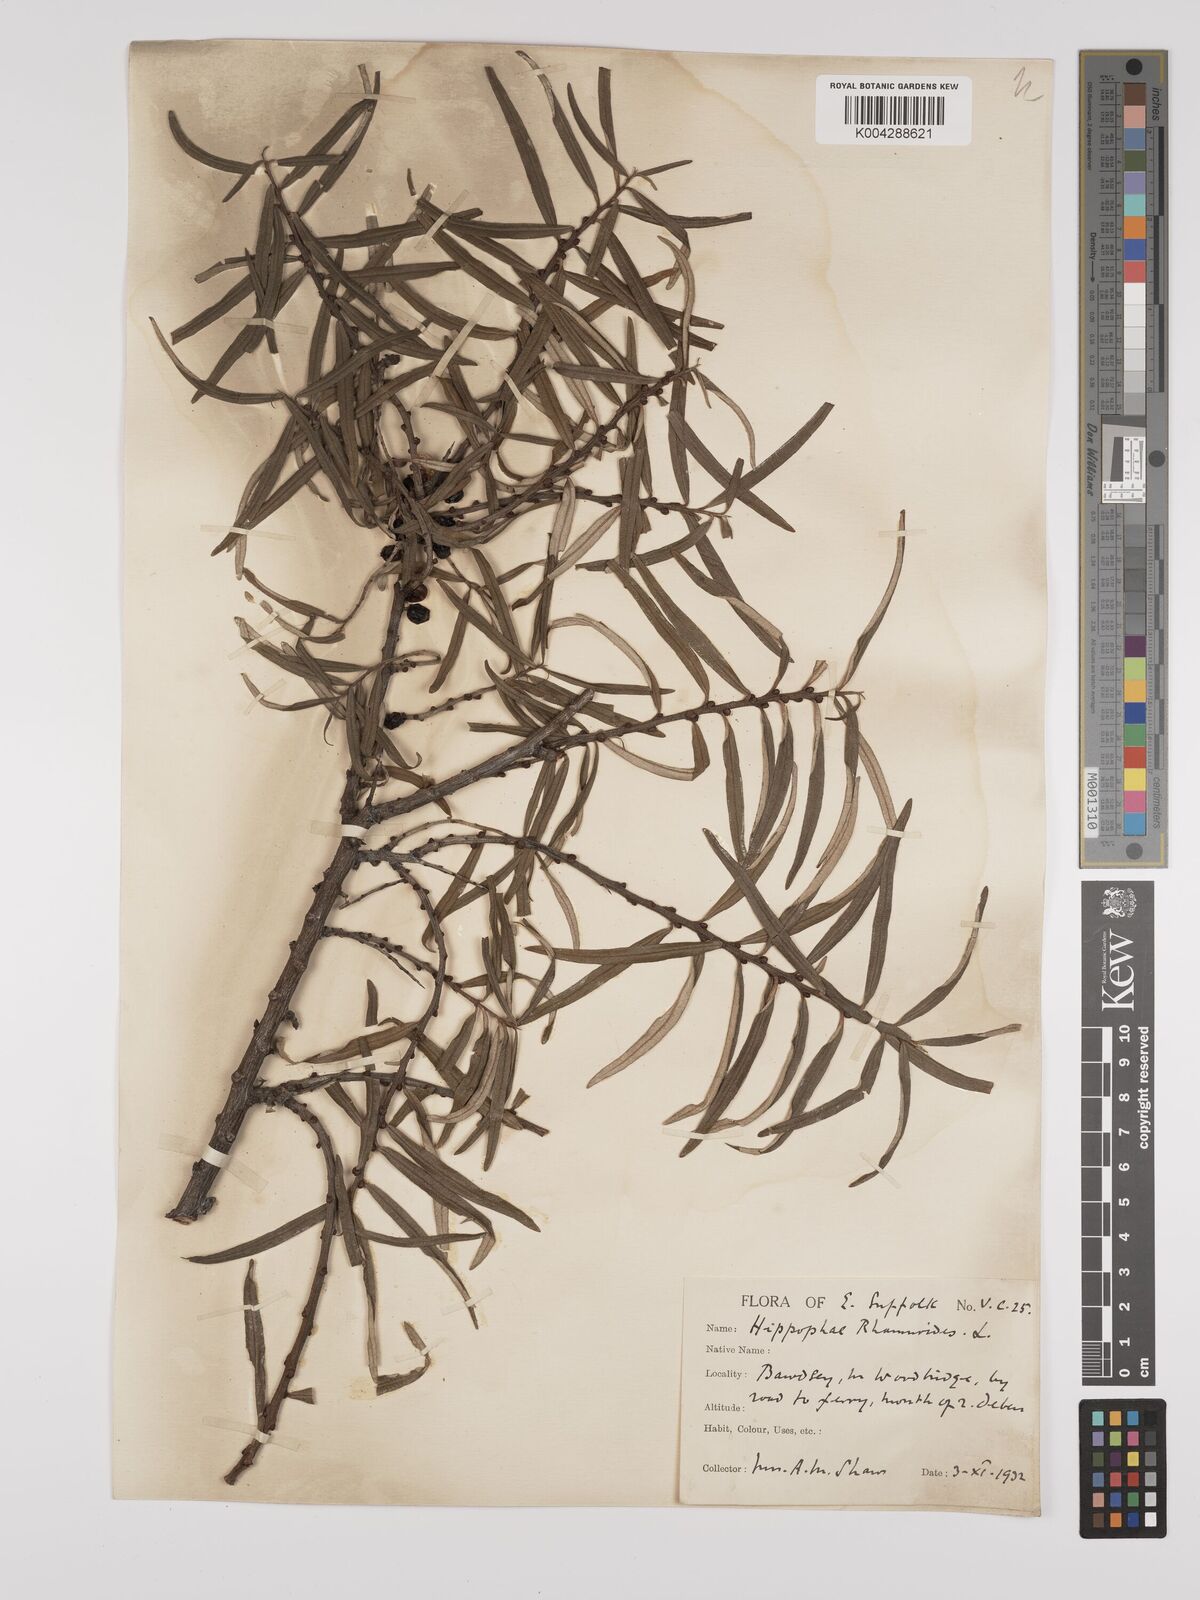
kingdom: Plantae
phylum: Tracheophyta
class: Magnoliopsida
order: Rosales
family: Elaeagnaceae
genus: Hippophae
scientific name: Hippophae rhamnoides
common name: Sea-buckthorn
